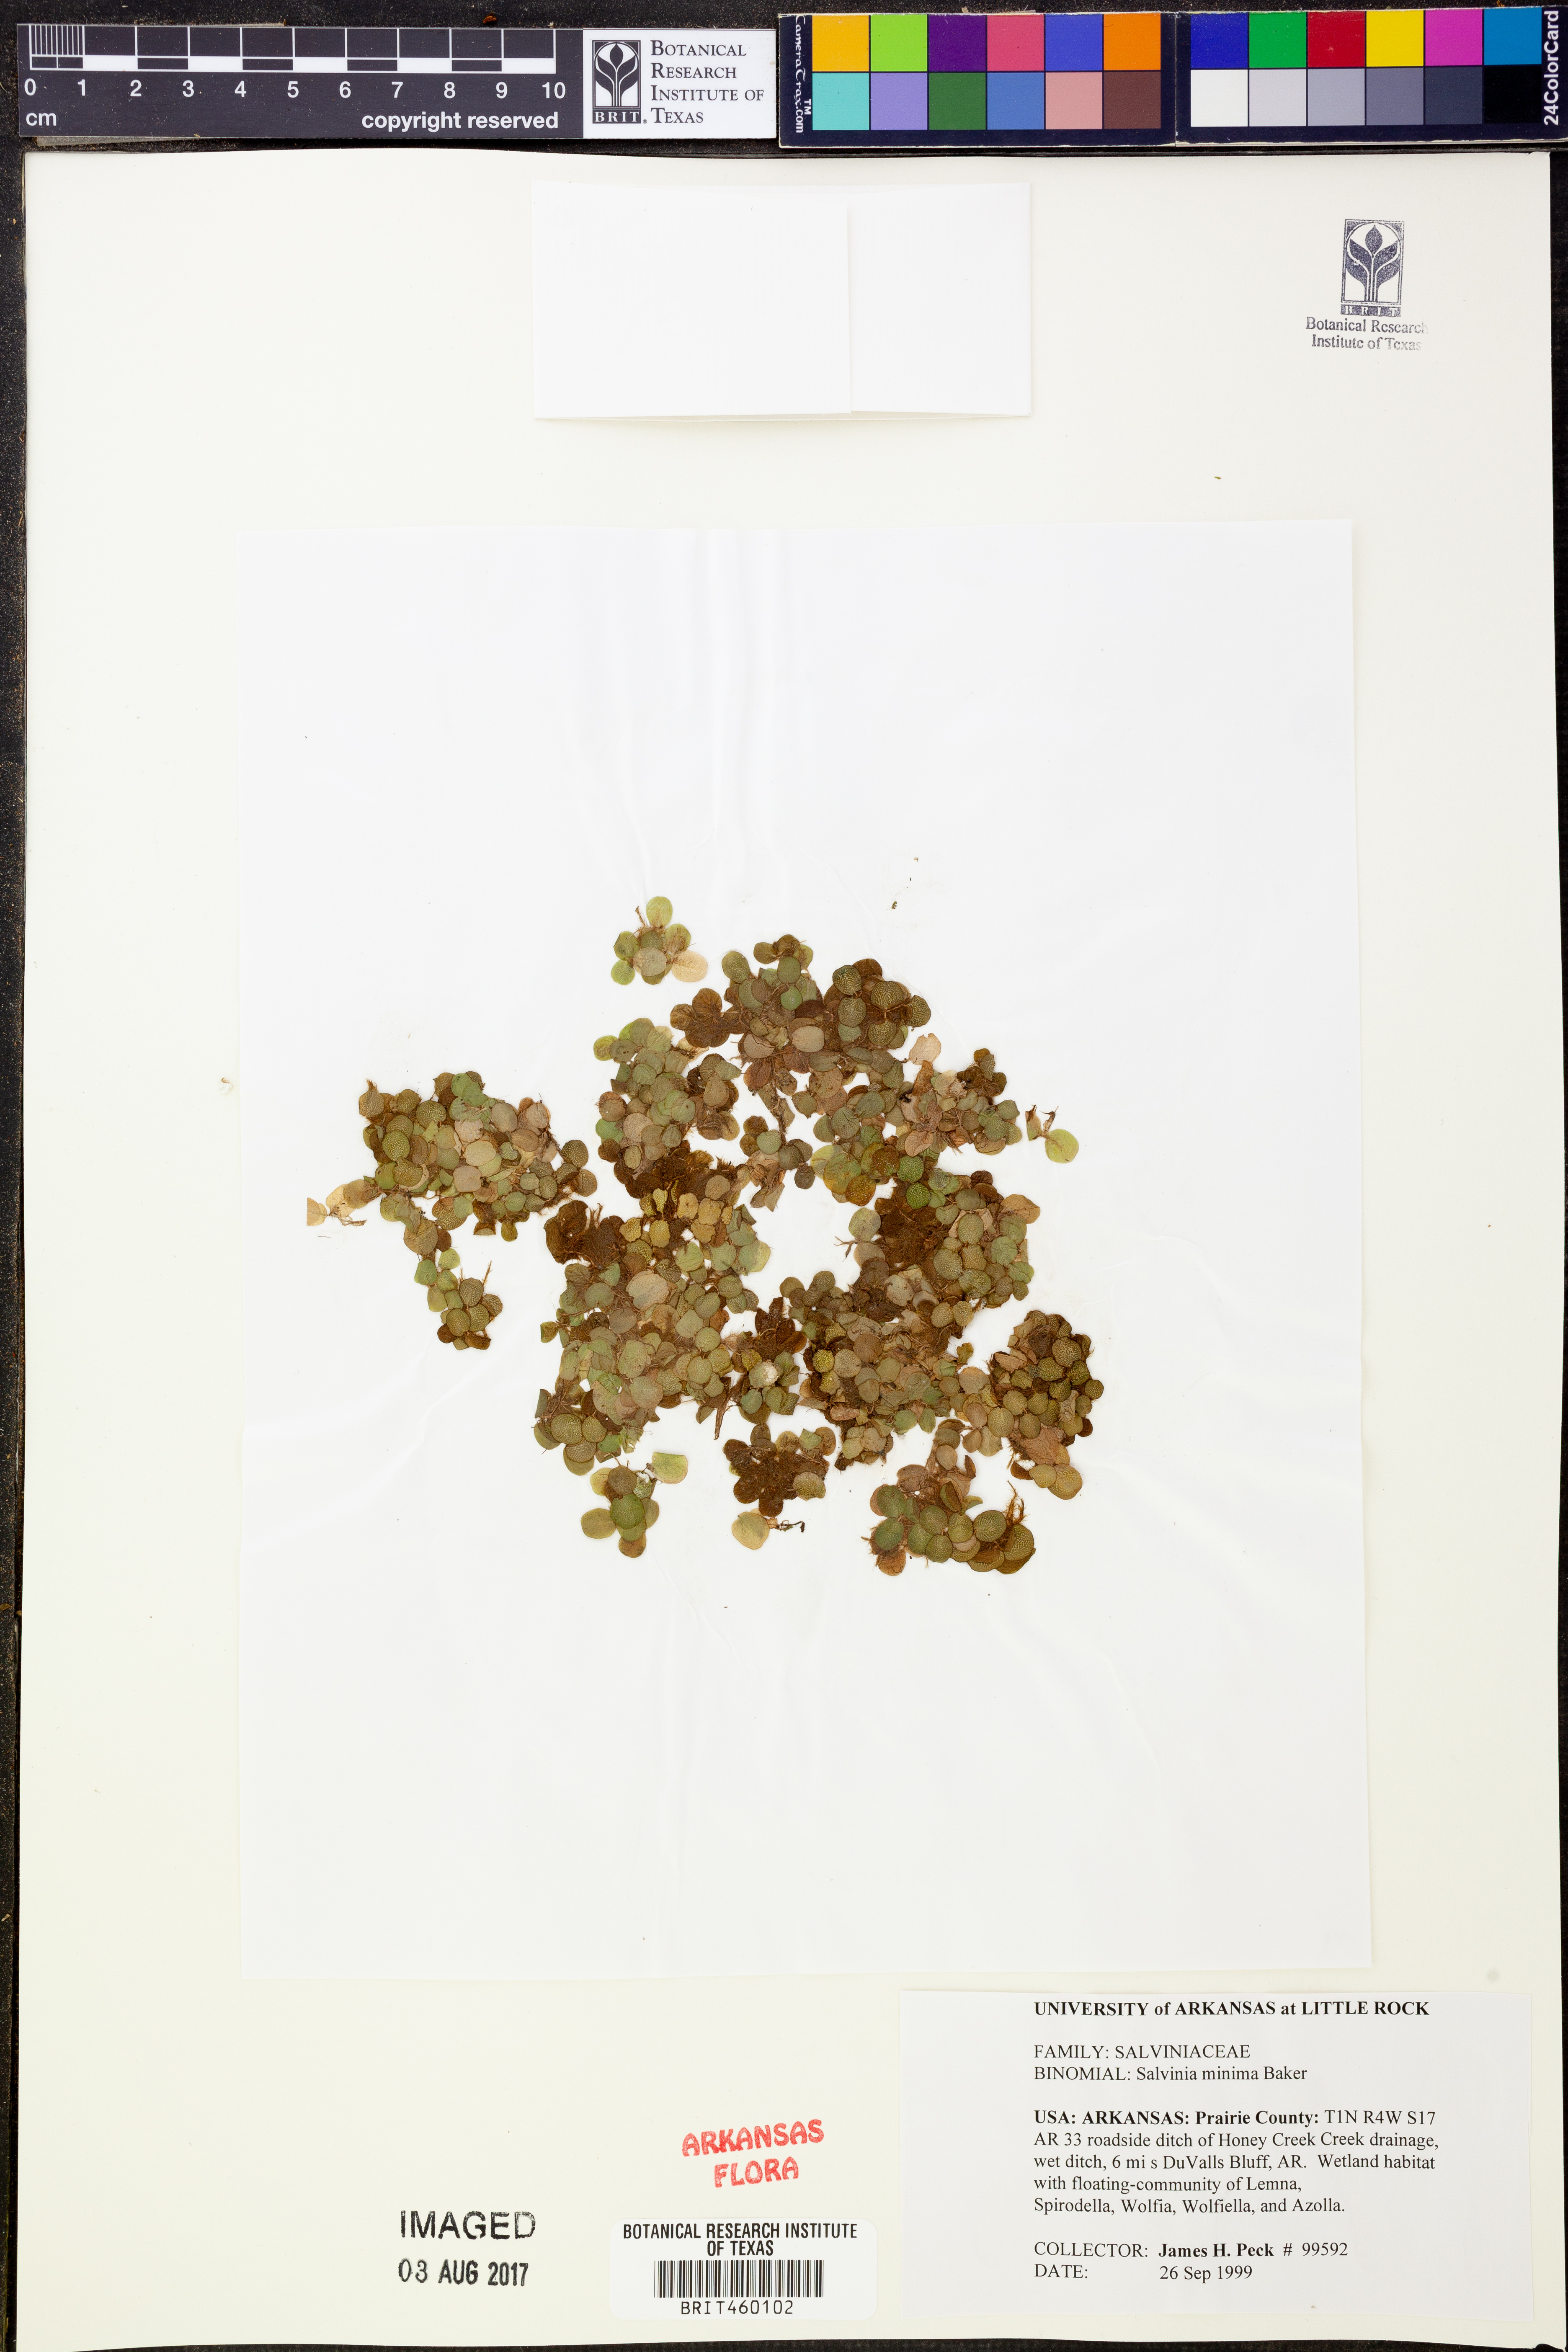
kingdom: Plantae
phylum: Tracheophyta
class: Polypodiopsida
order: Salviniales
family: Salviniaceae
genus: Salvinia
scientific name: Salvinia minima
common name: Water spangles
